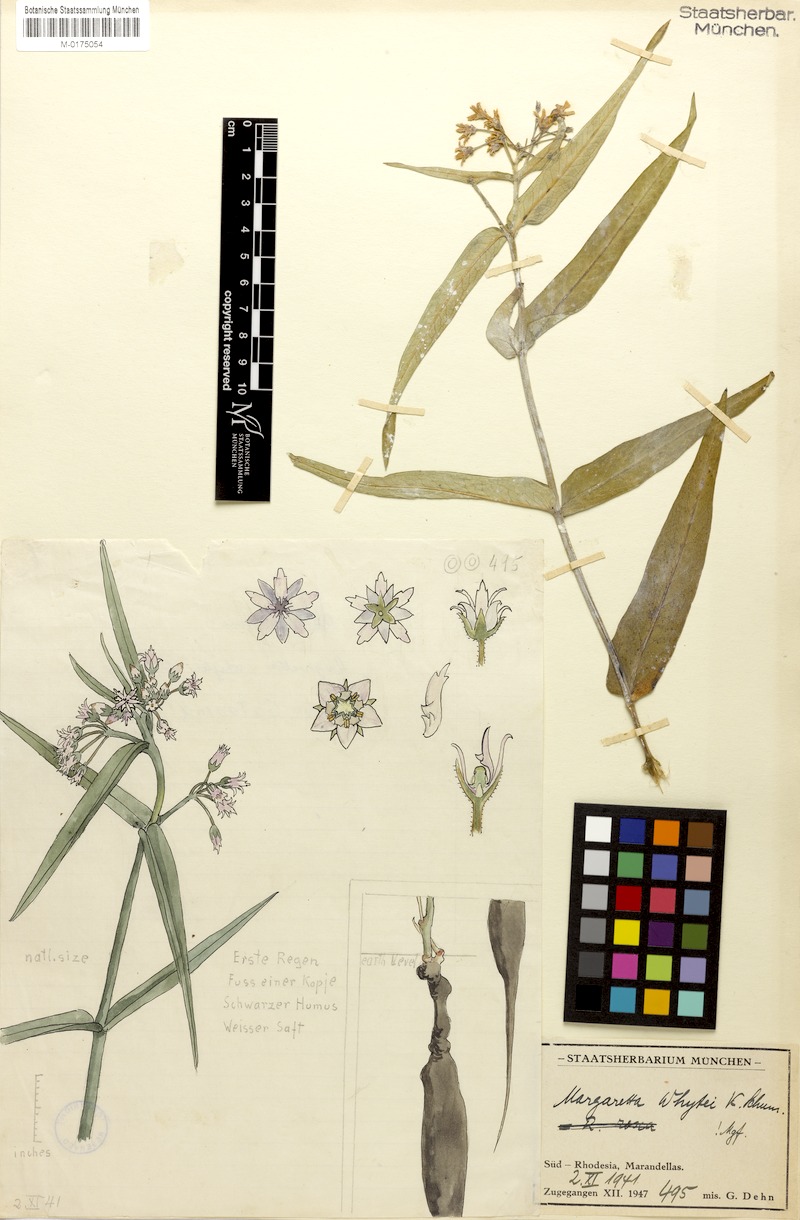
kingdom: Plantae
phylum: Tracheophyta
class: Magnoliopsida
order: Gentianales
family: Apocynaceae
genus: Margaretta
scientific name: Margaretta rosea
